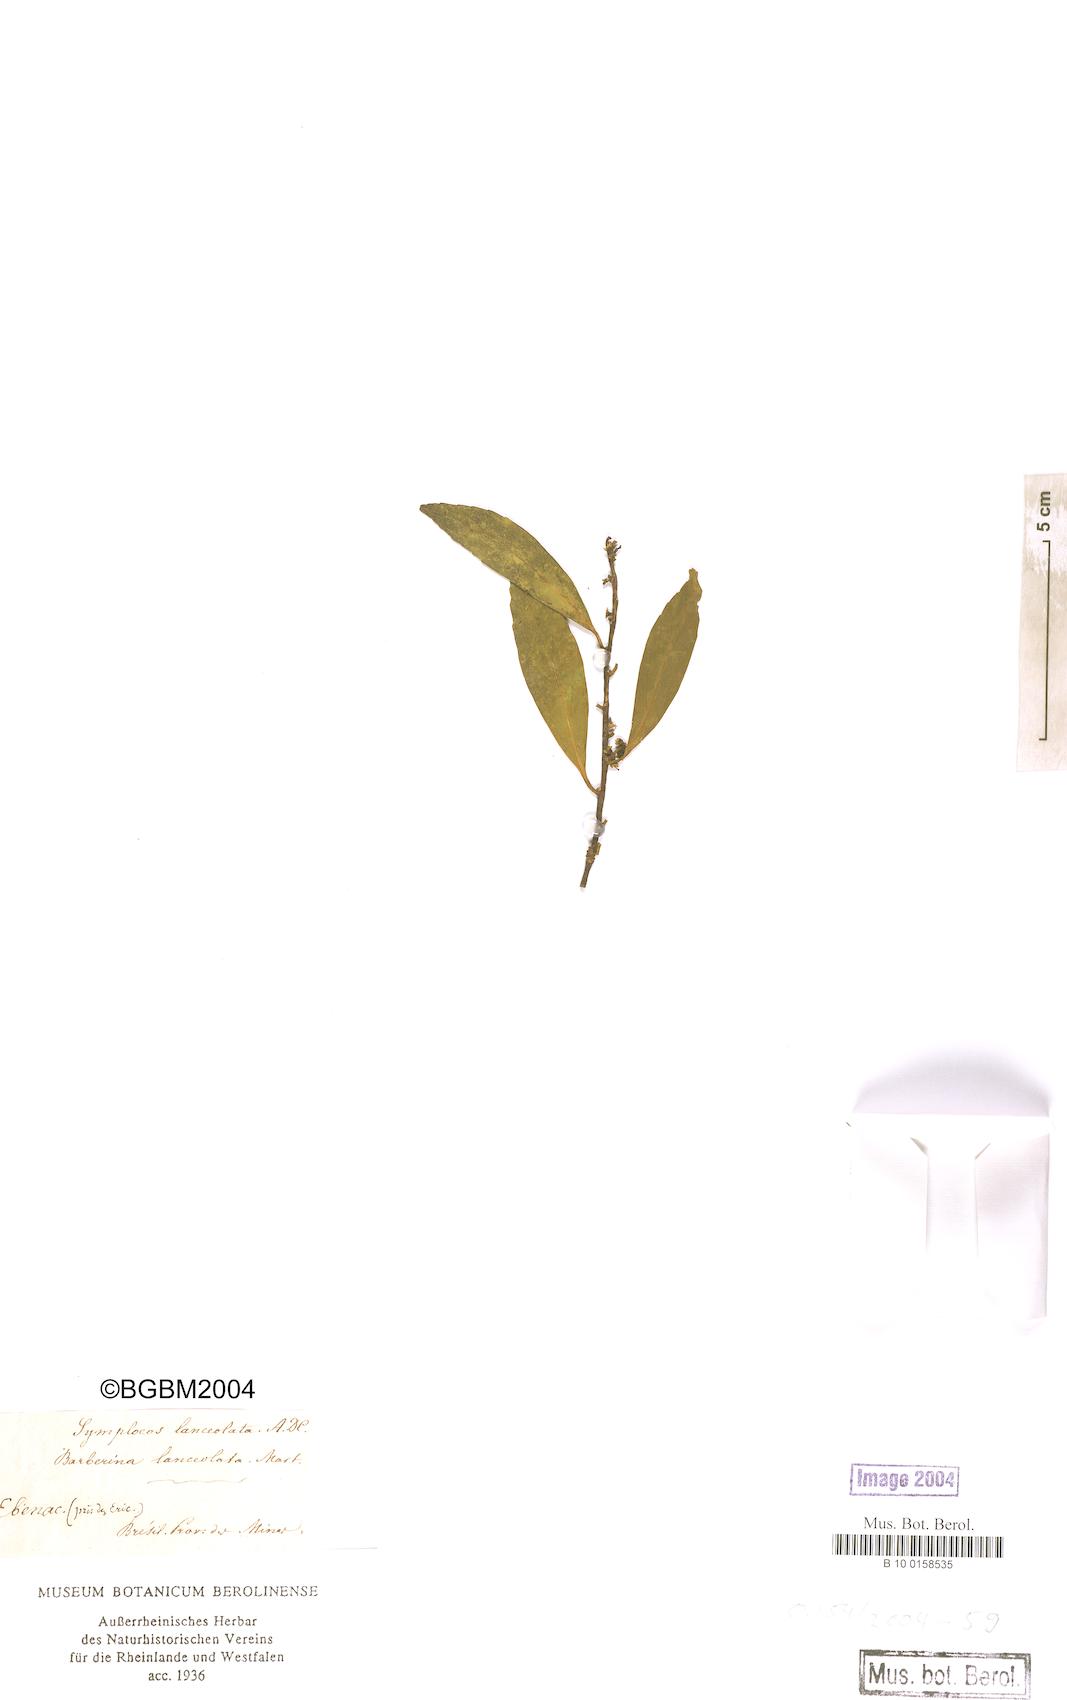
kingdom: Plantae
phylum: Tracheophyta
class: Magnoliopsida
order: Ericales
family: Symplocaceae
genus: Symplocos
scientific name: Symplocos oblongifolia
